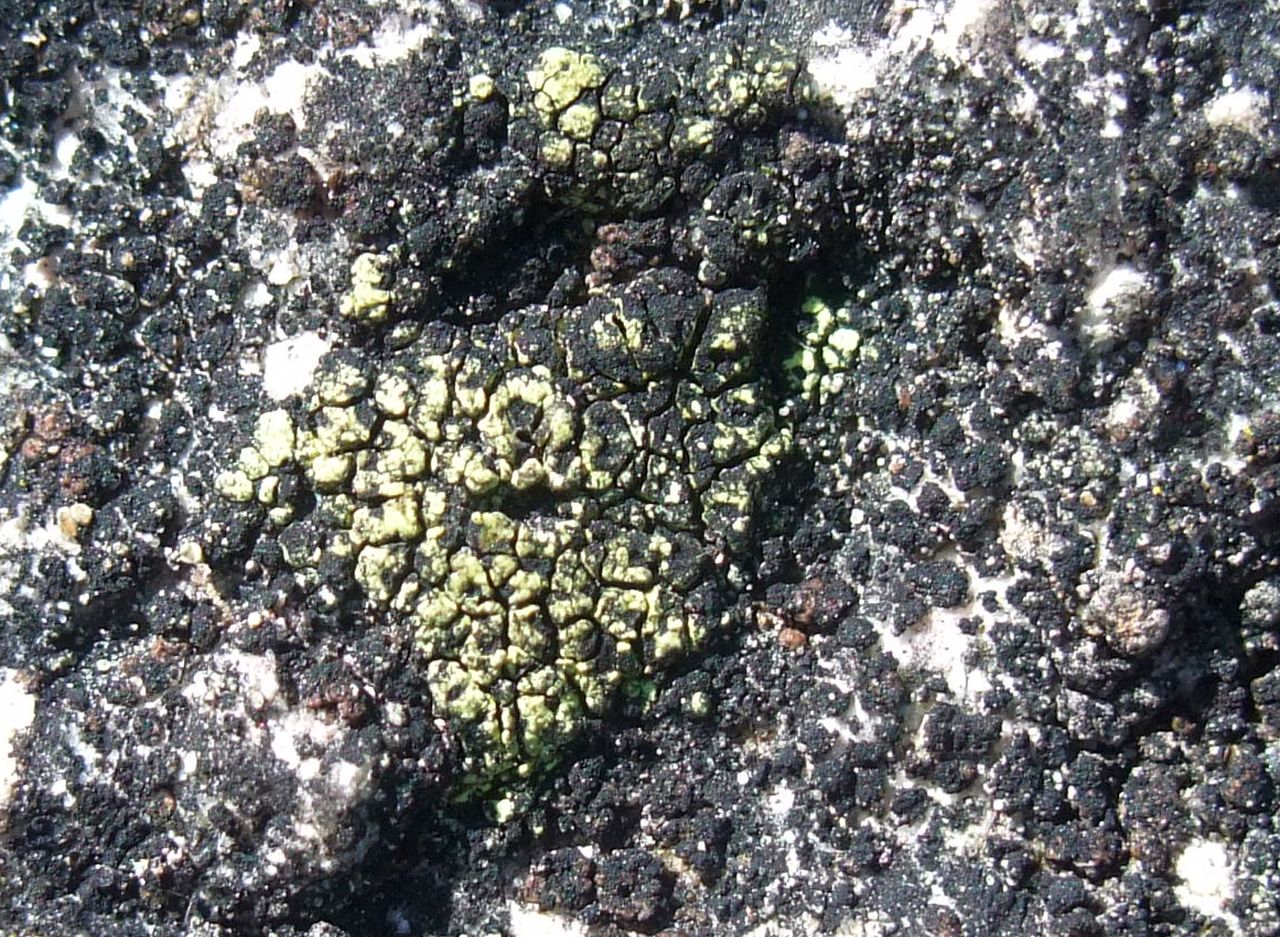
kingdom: Fungi
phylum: Ascomycota
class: Lecanoromycetes
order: Rhizocarpales
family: Rhizocarpaceae
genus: Rhizocarpon
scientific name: Rhizocarpon geographicum
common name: gulgrøn landkortlav
